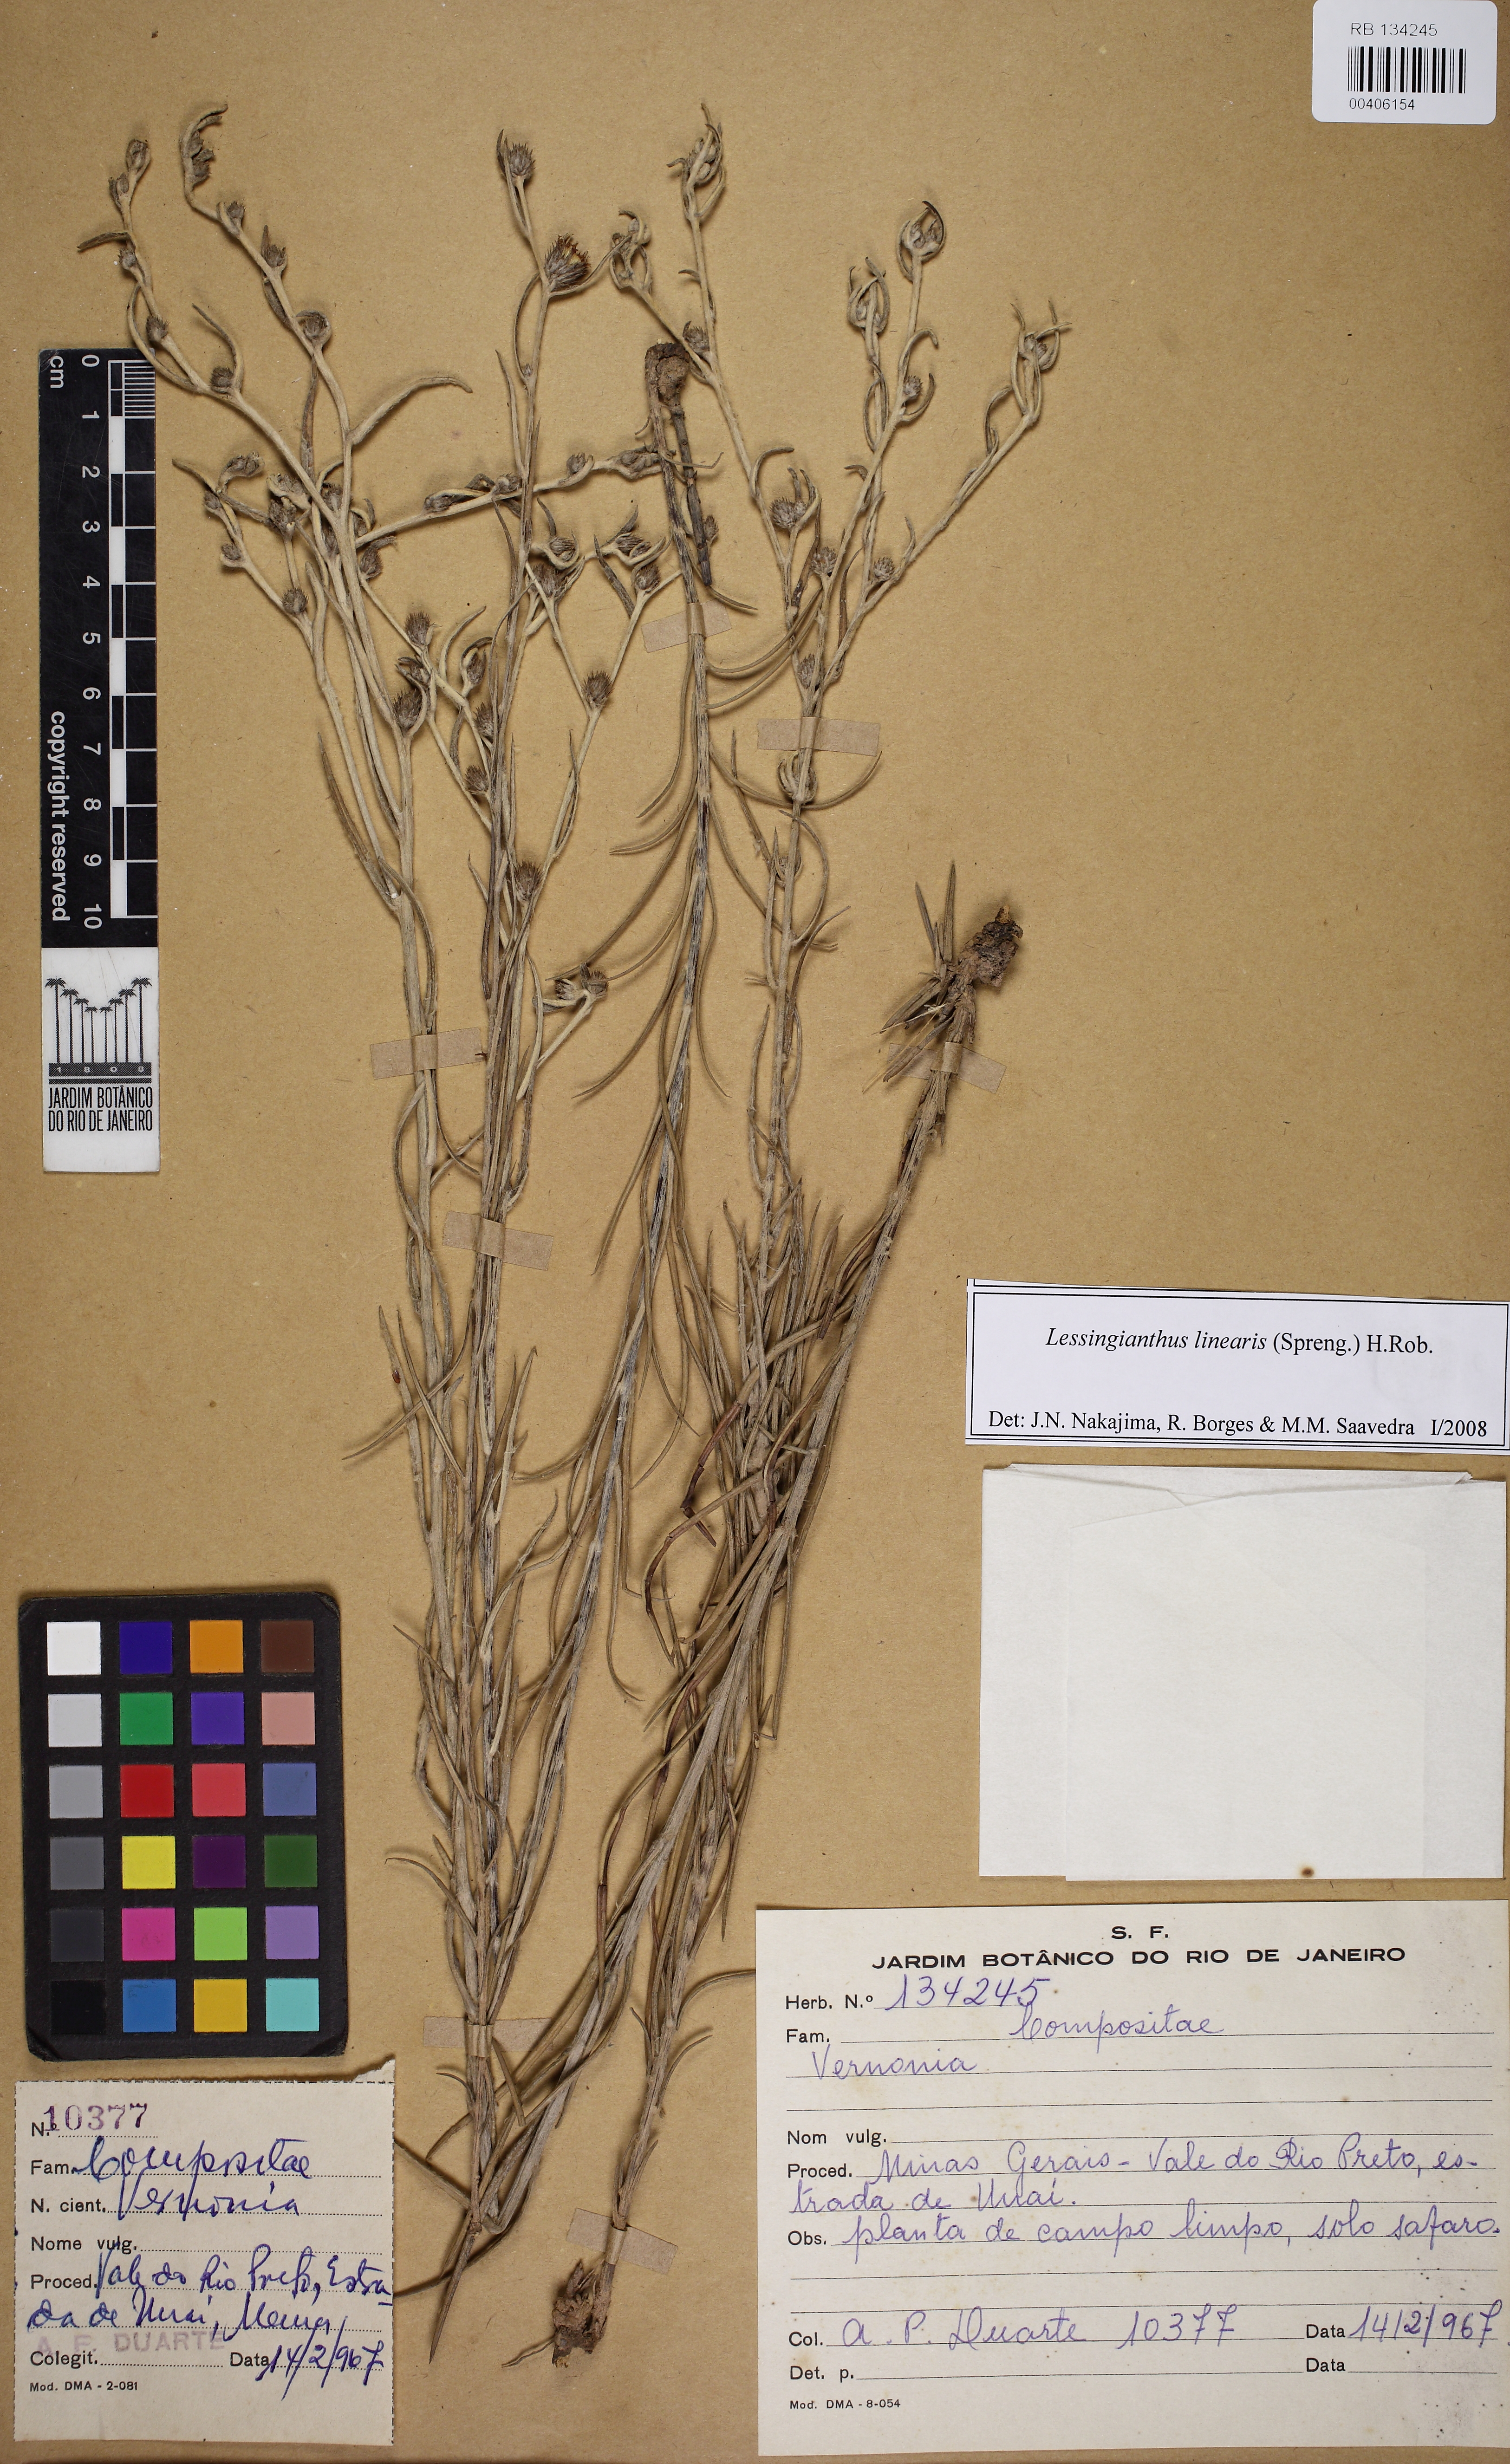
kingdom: Plantae
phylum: Tracheophyta
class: Magnoliopsida
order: Asterales
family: Asteraceae
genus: Lessingianthus
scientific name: Lessingianthus linearis
